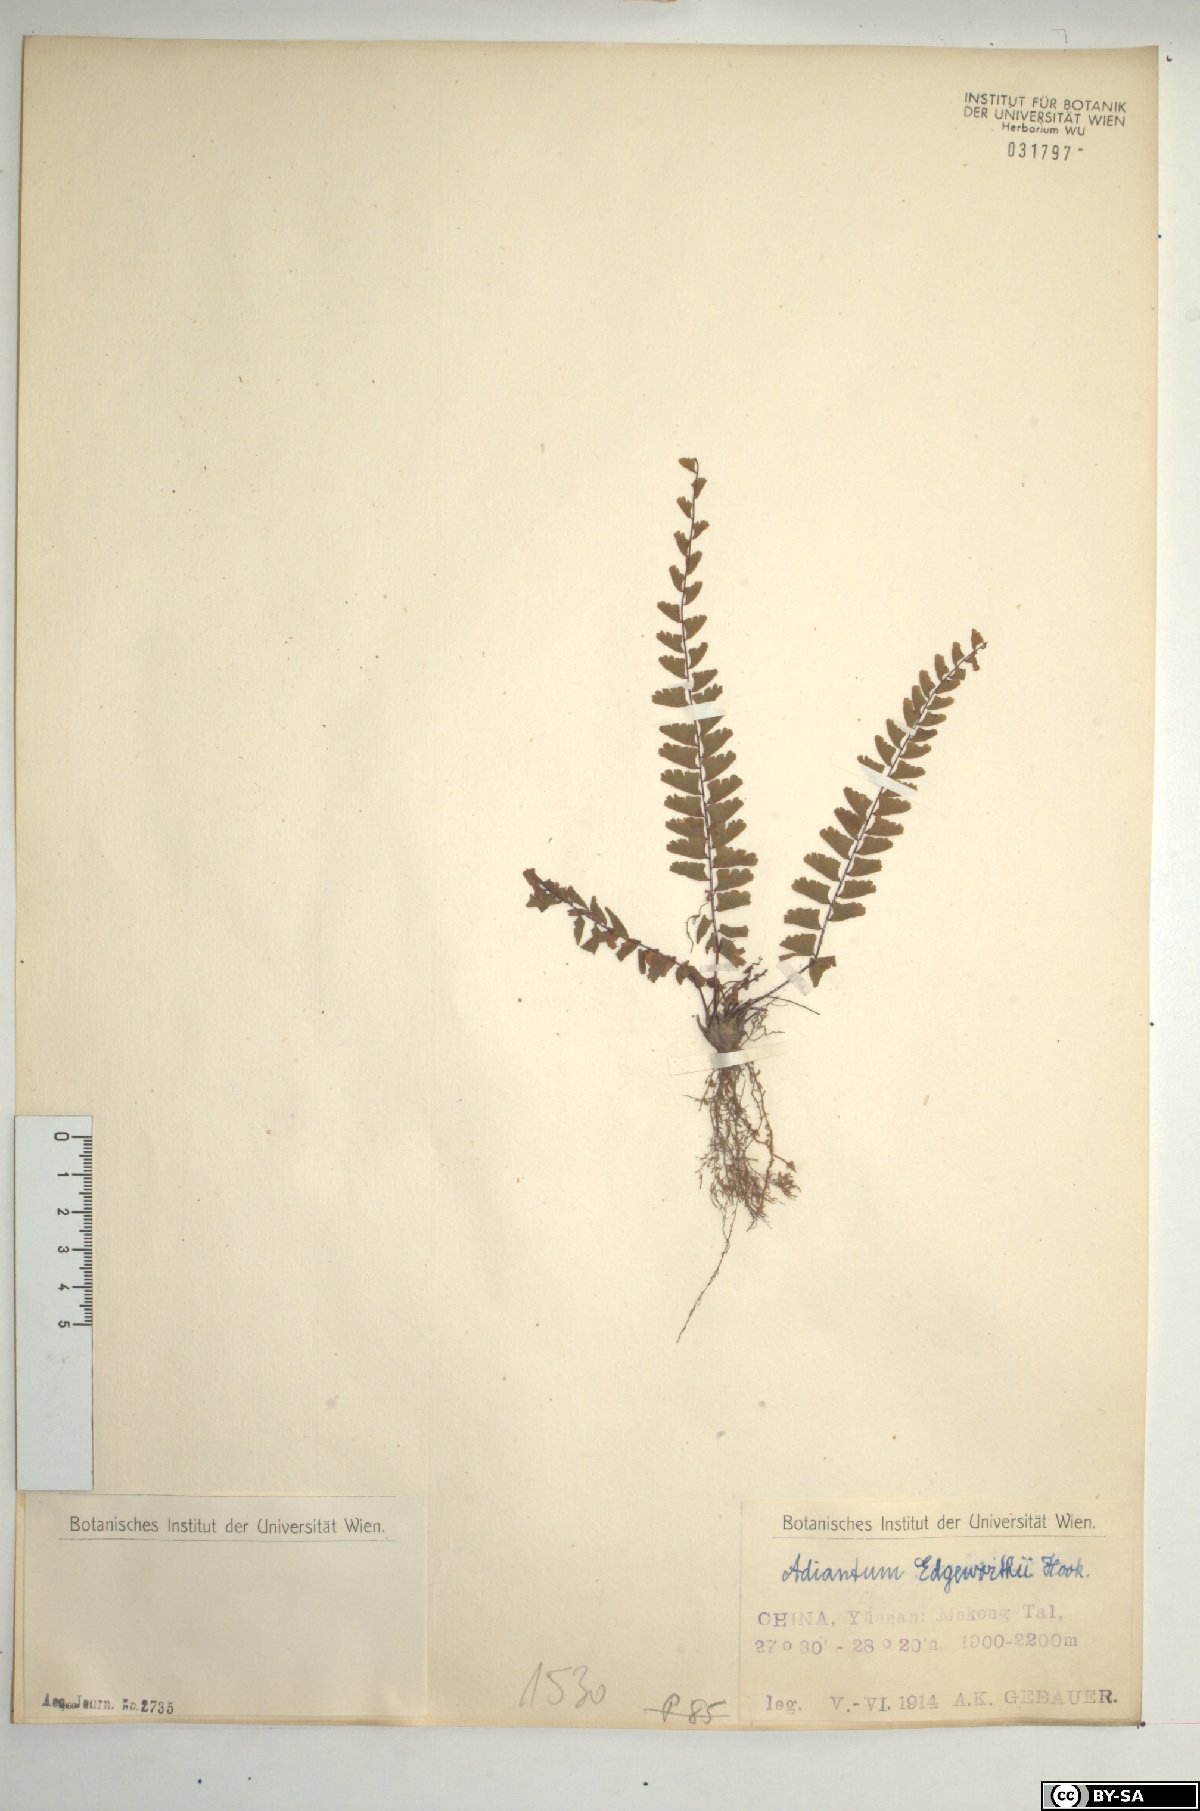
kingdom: Plantae
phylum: Tracheophyta
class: Polypodiopsida
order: Polypodiales
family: Pteridaceae
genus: Adiantum
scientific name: Adiantum edgeworthii
